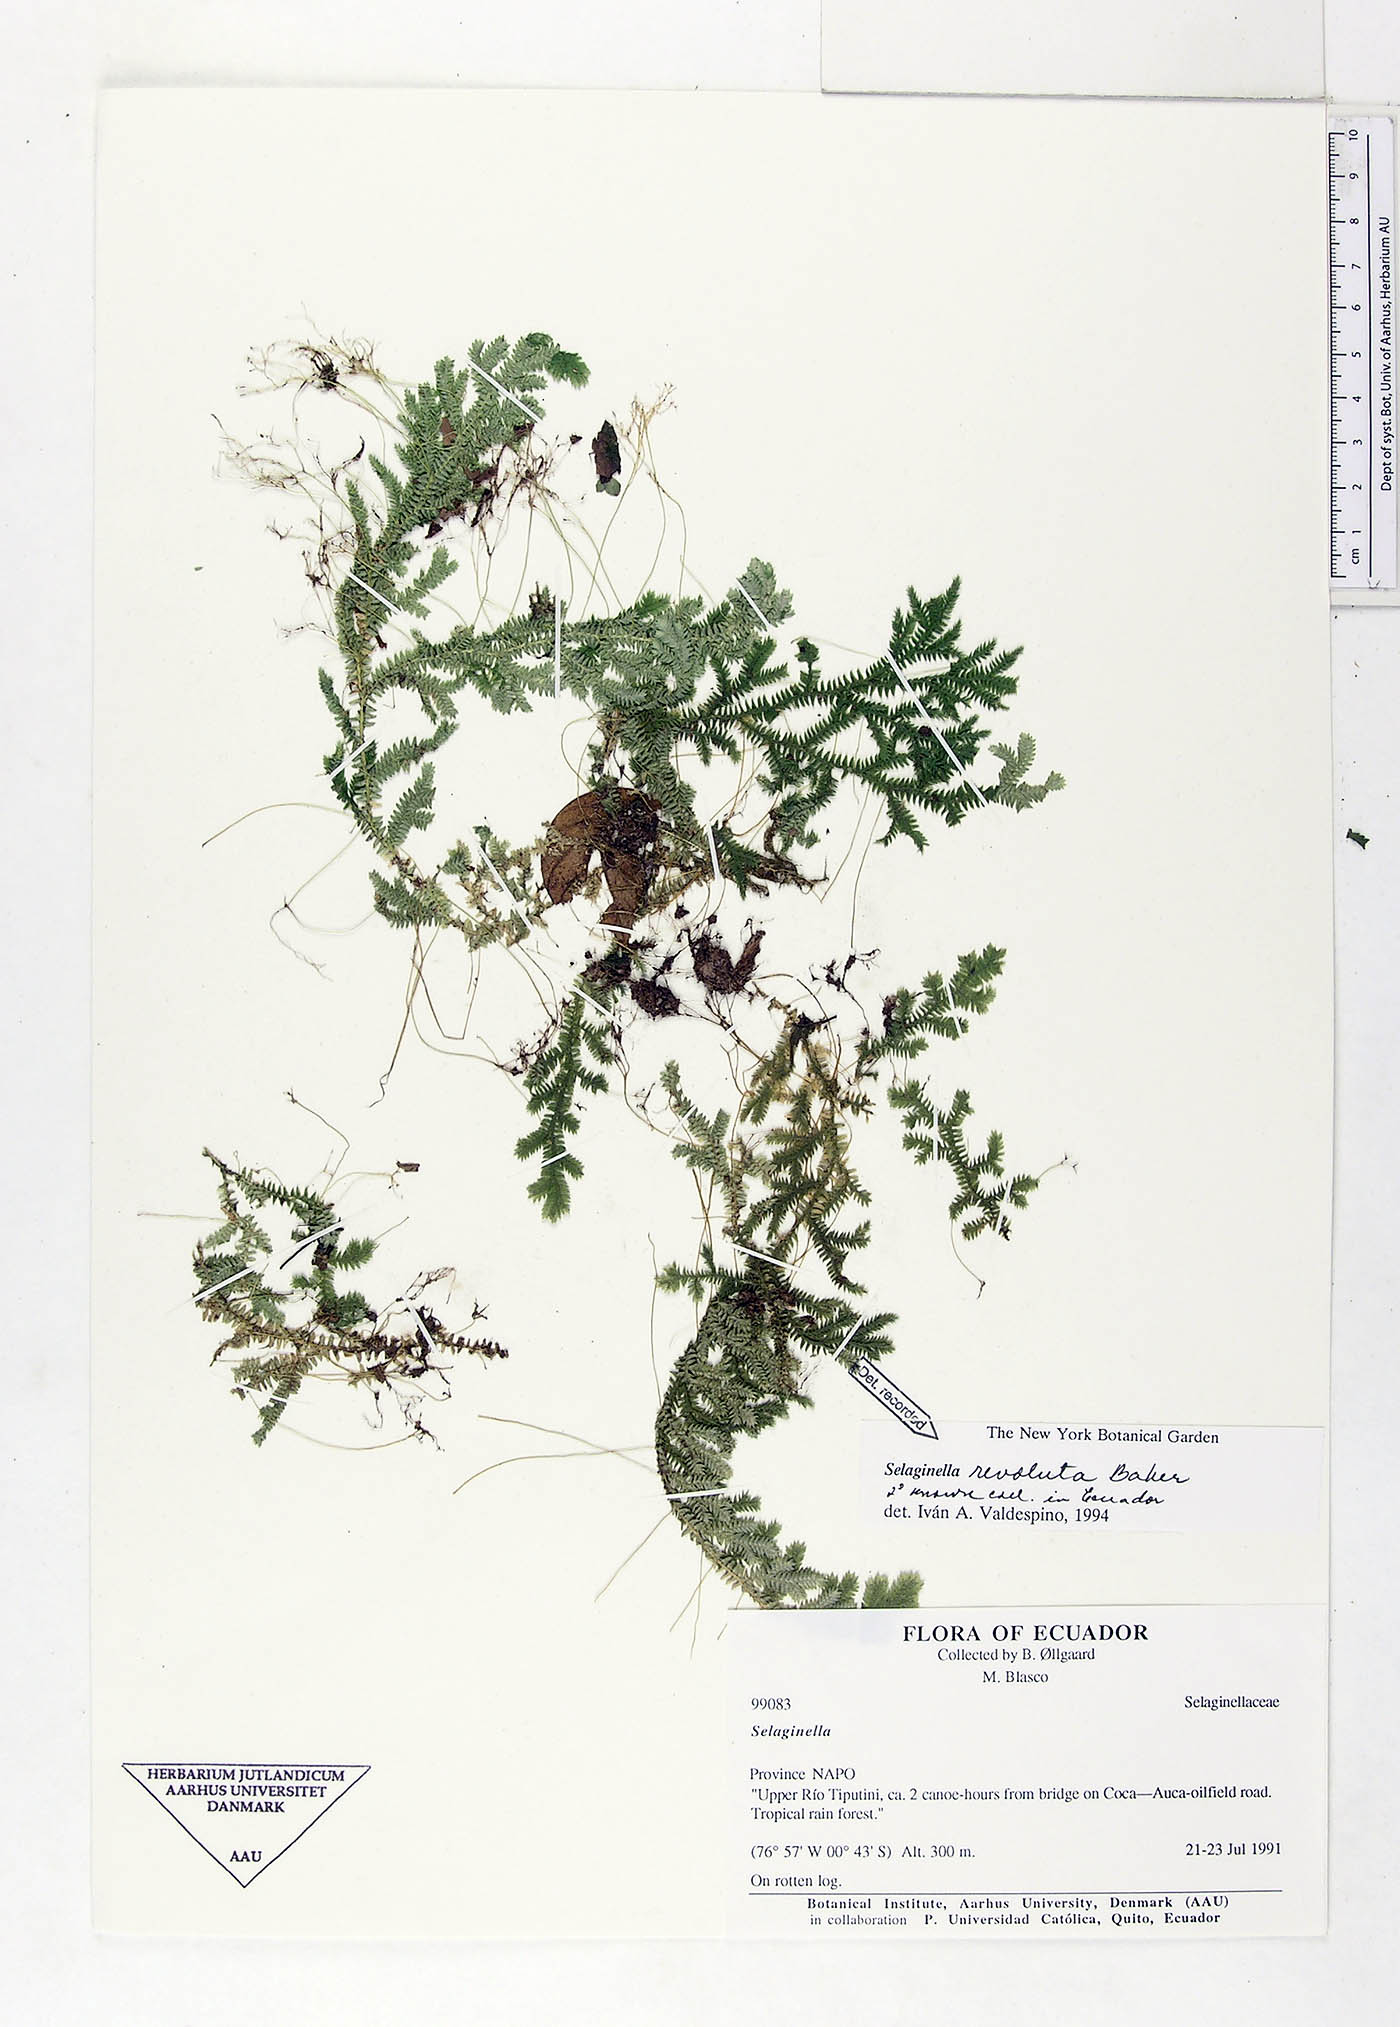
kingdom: Plantae
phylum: Tracheophyta
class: Lycopodiopsida
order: Selaginellales
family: Selaginellaceae
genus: Selaginella
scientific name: Selaginella revoluta
